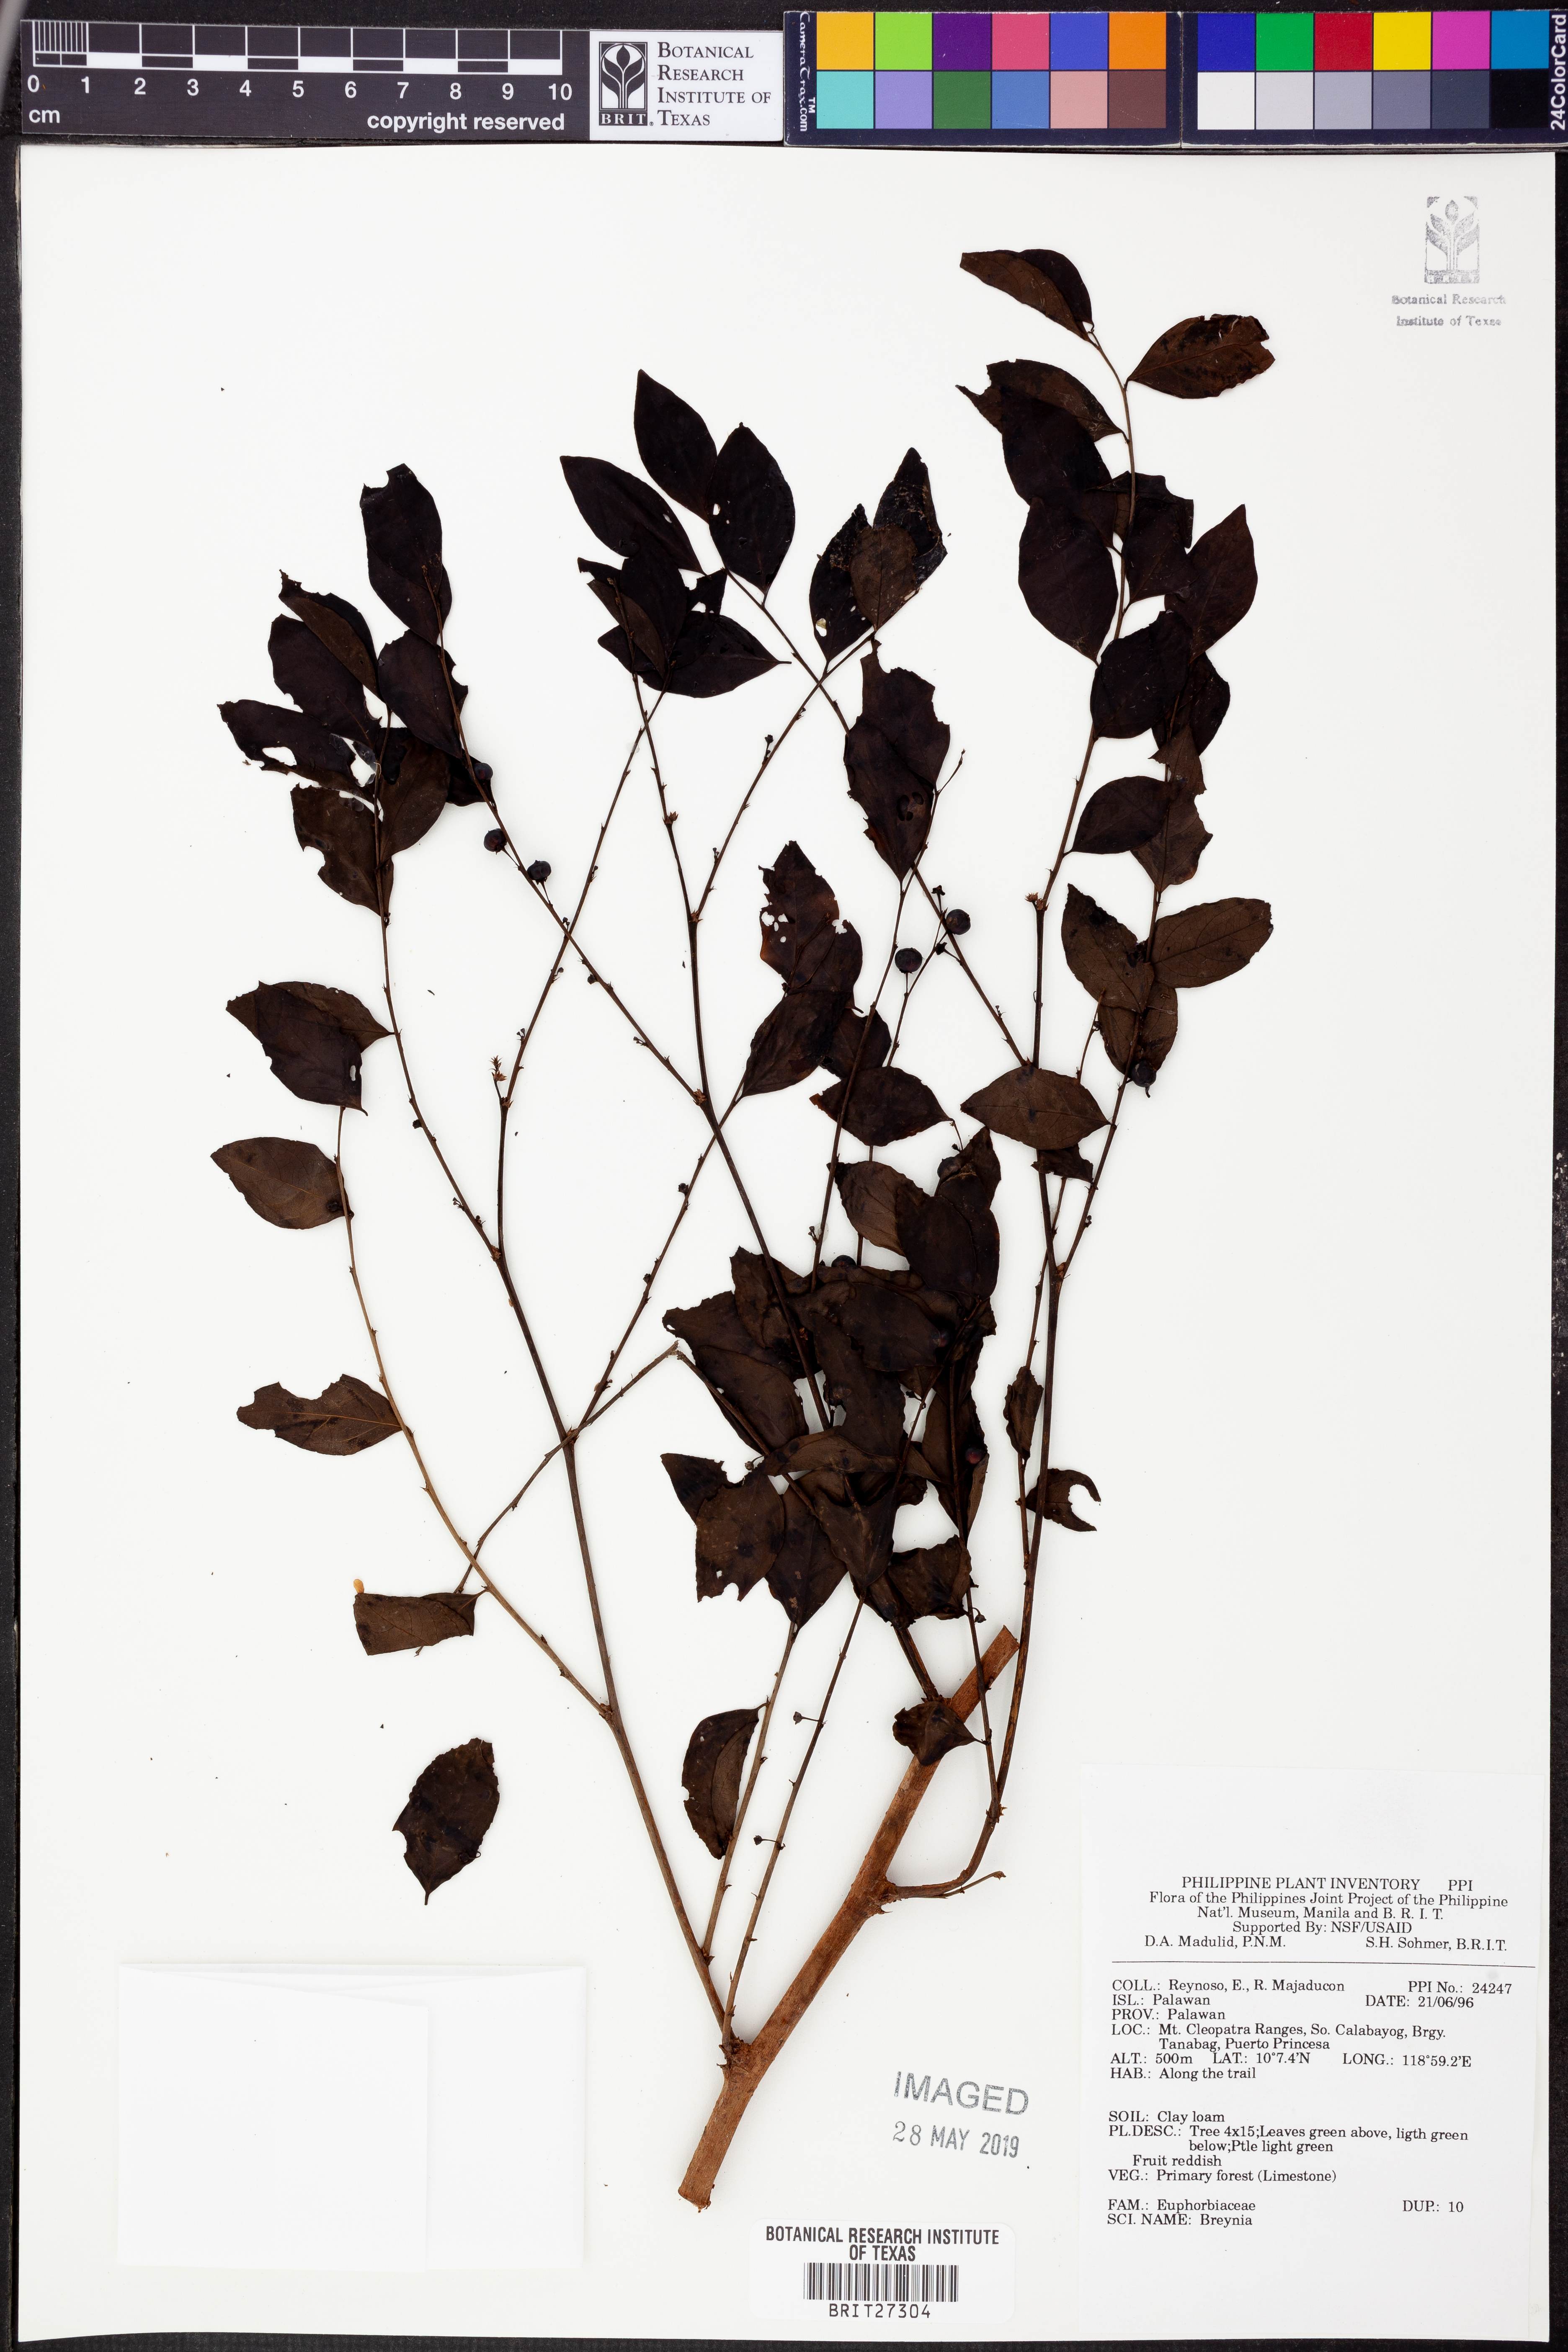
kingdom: Plantae
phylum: Tracheophyta
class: Magnoliopsida
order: Malpighiales
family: Phyllanthaceae
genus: Breynia
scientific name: Breynia
